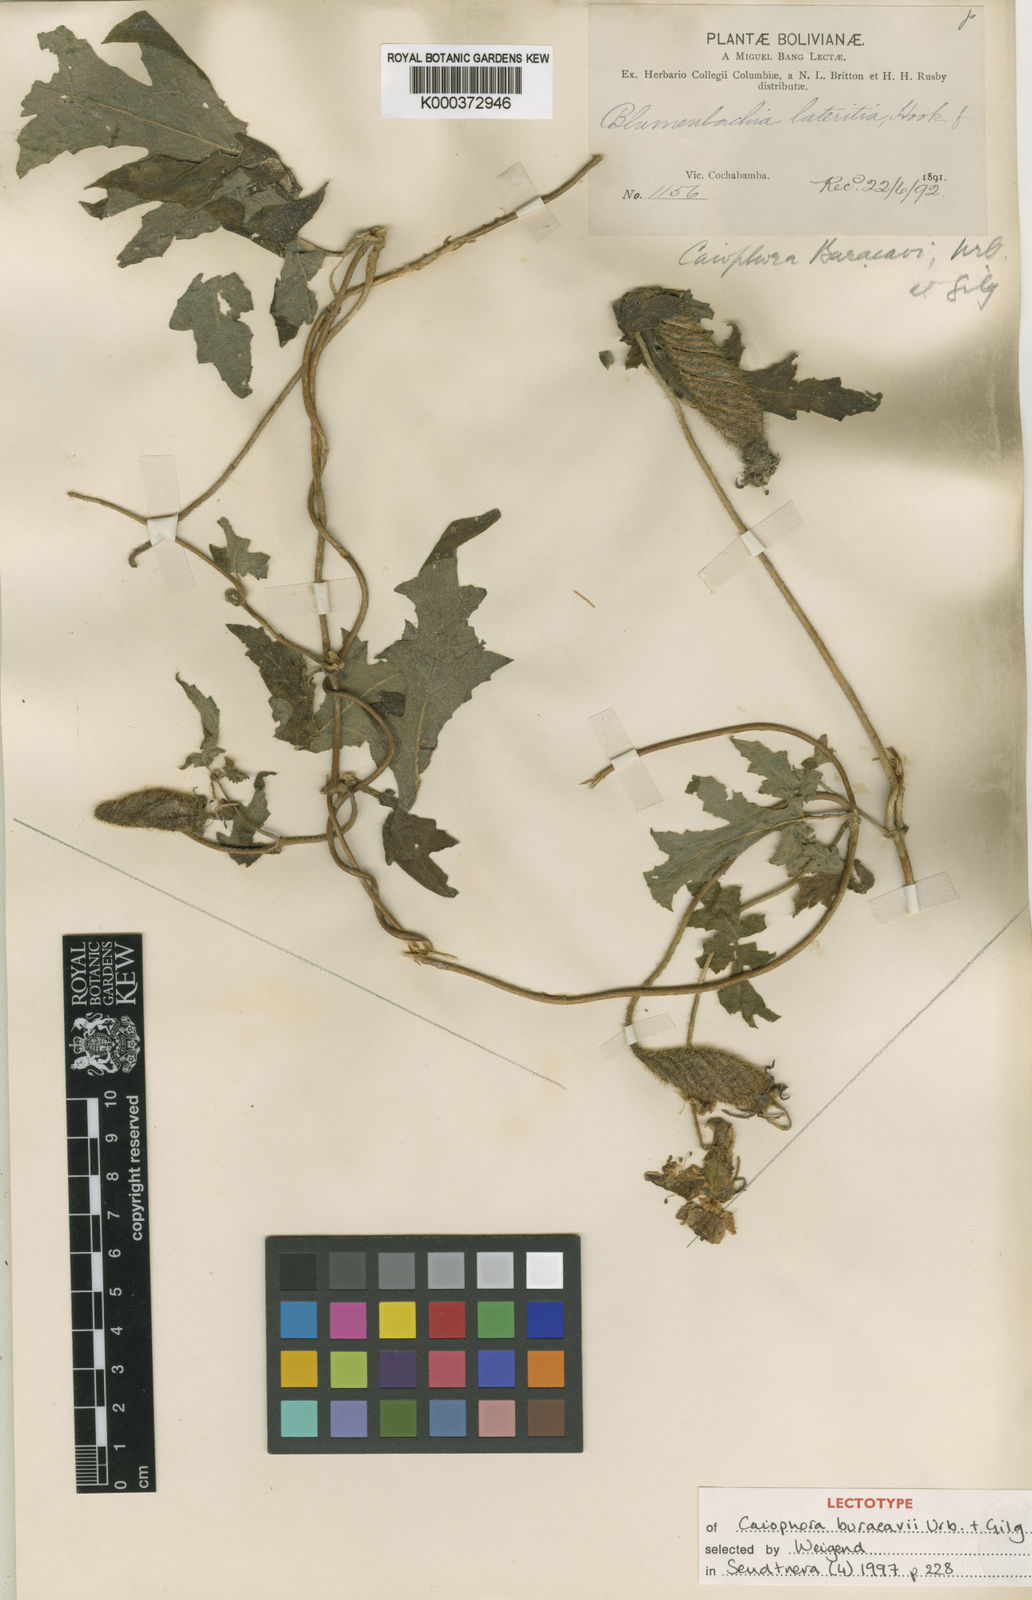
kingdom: Plantae
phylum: Tracheophyta
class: Magnoliopsida
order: Cornales
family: Loasaceae
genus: Caiophora
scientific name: Caiophora buraeavii
